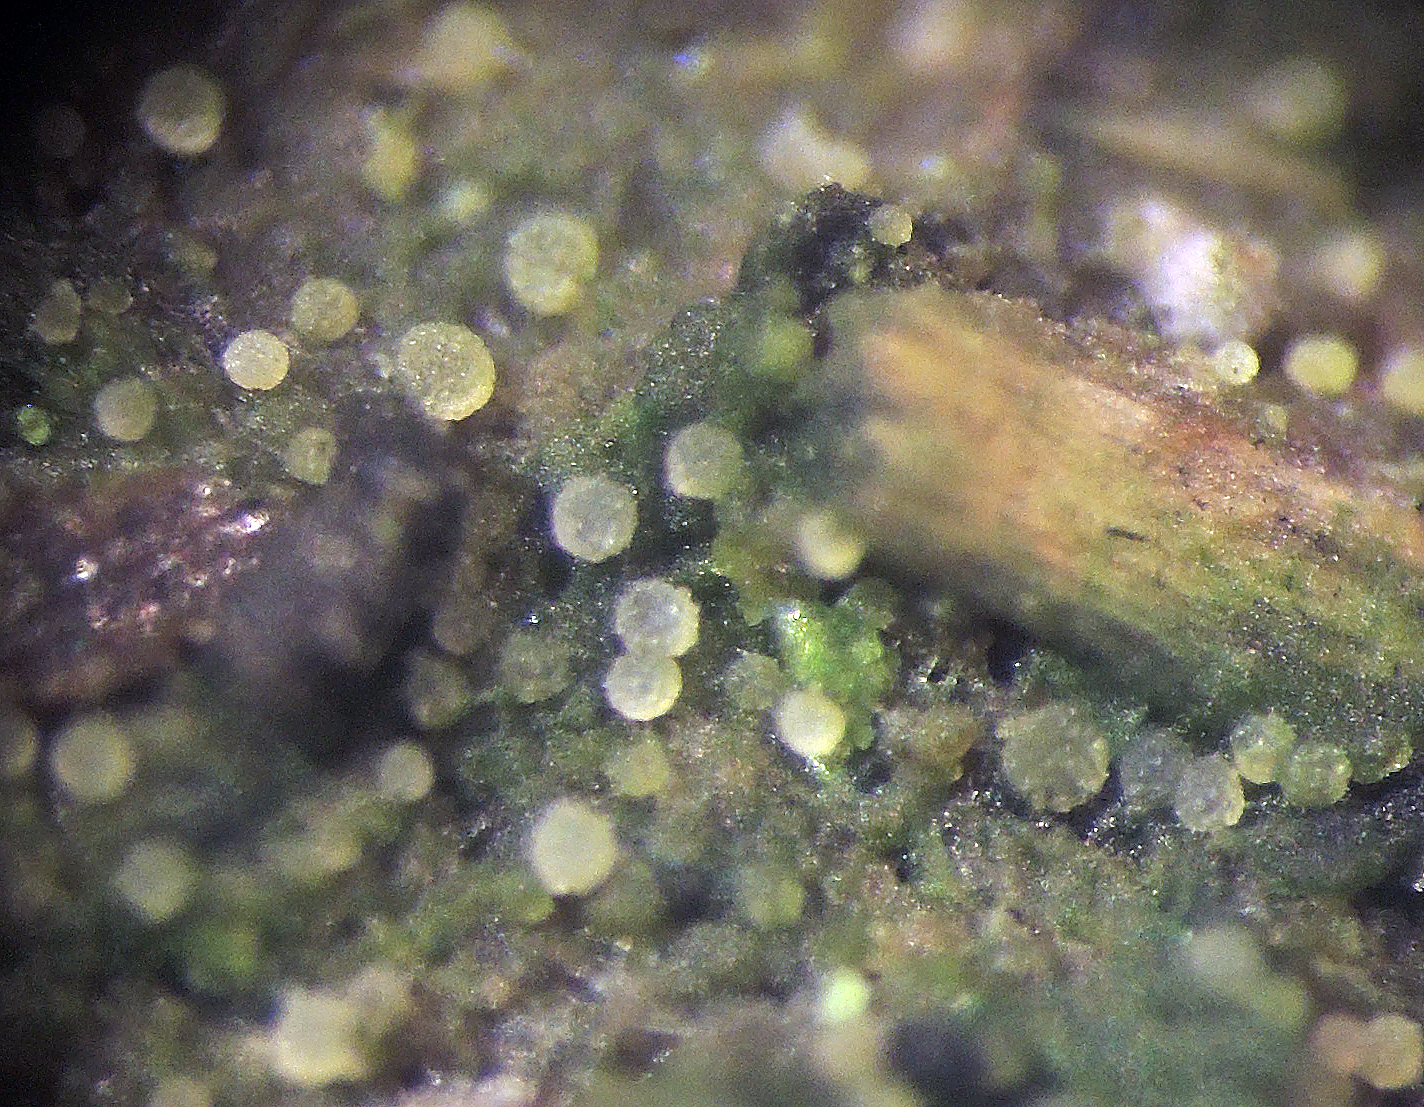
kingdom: Fungi
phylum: Ascomycota
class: Pezizomycetes
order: Pezizales
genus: Coprotus
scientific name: Coprotus
